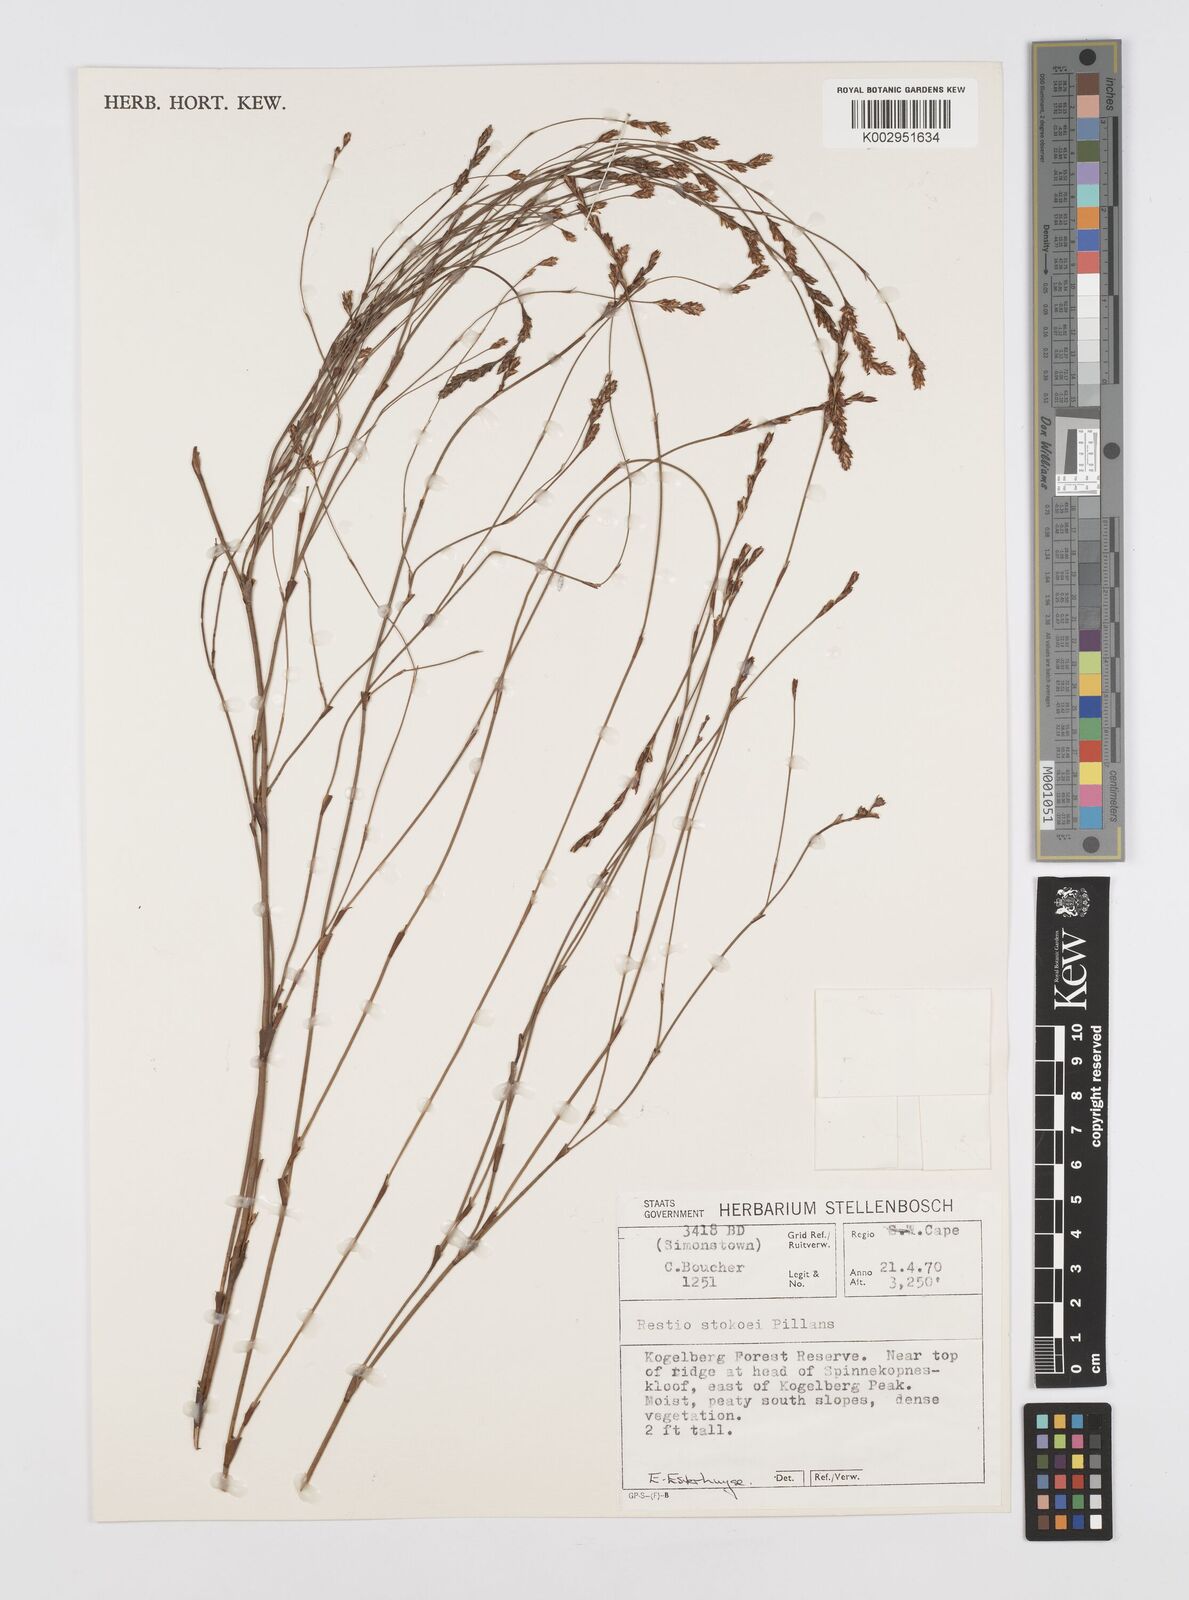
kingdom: Plantae
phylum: Tracheophyta
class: Liliopsida
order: Poales
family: Restionaceae
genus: Restio
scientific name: Restio stokoei
